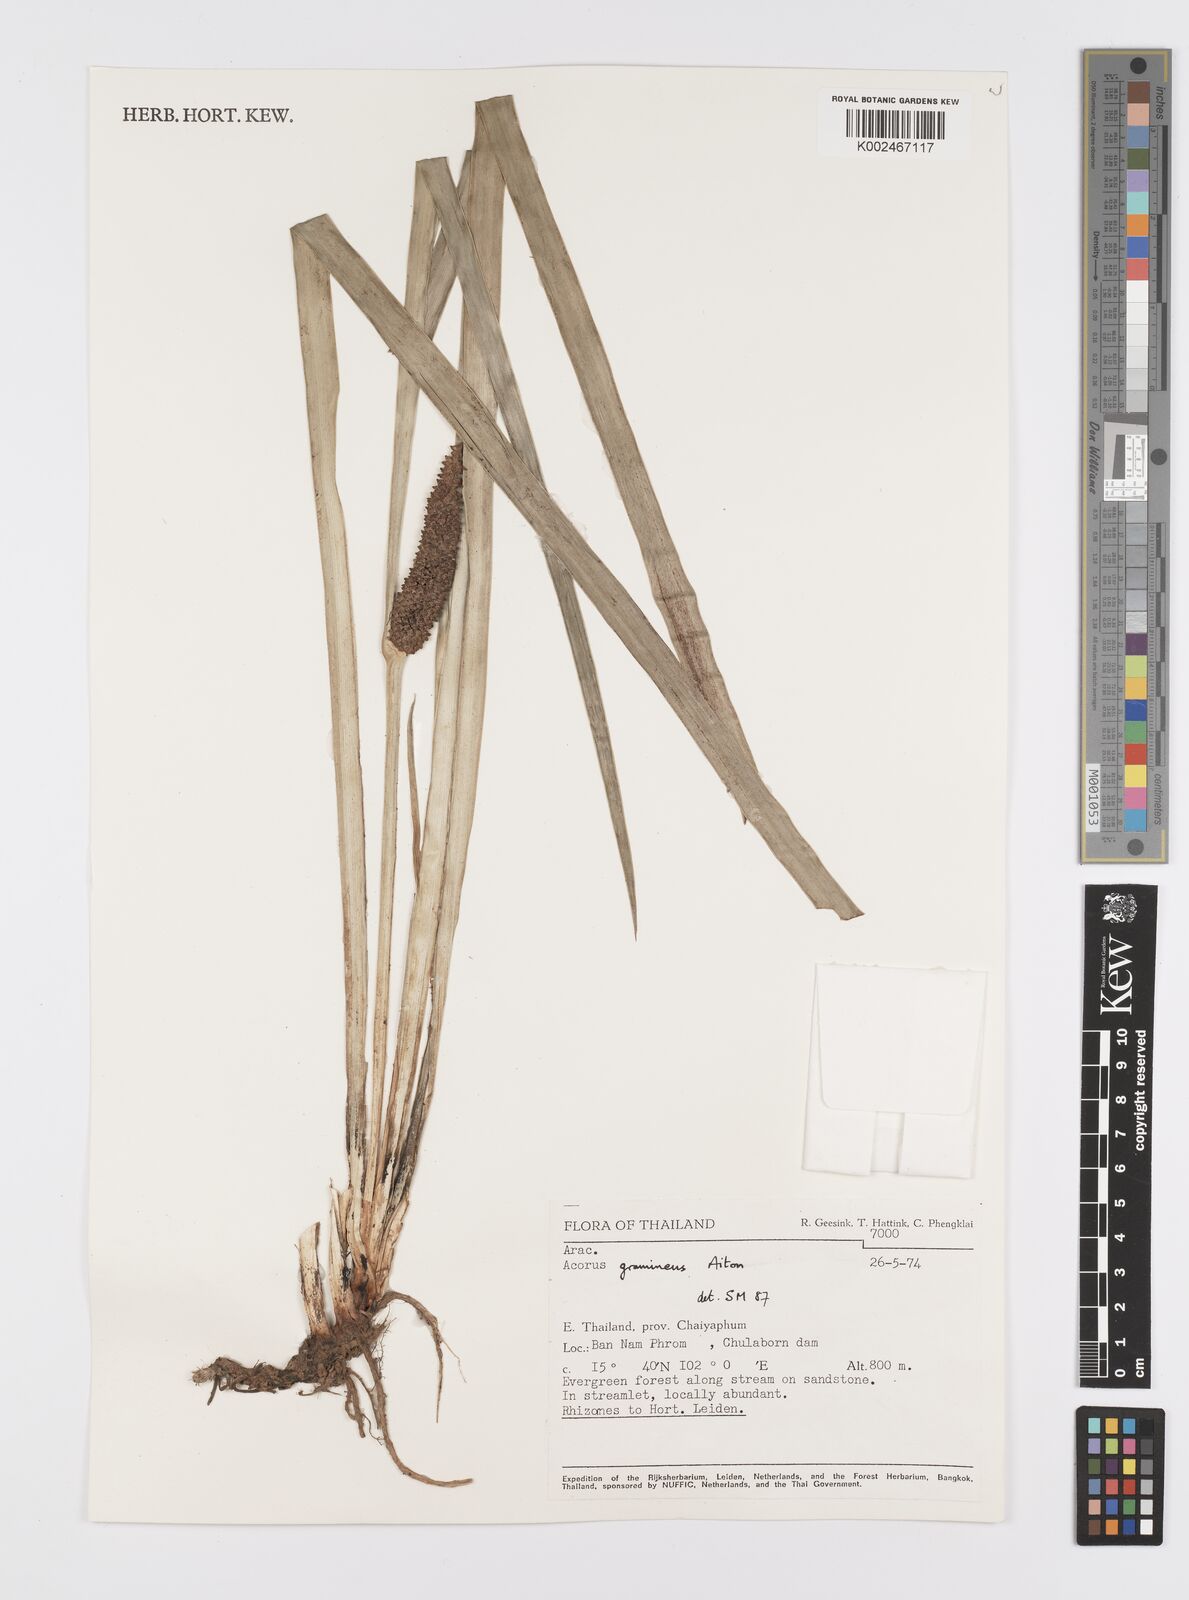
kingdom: Plantae
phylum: Tracheophyta
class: Liliopsida
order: Acorales
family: Acoraceae
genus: Acorus
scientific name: Acorus gramineus
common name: Slender sweet-flag
